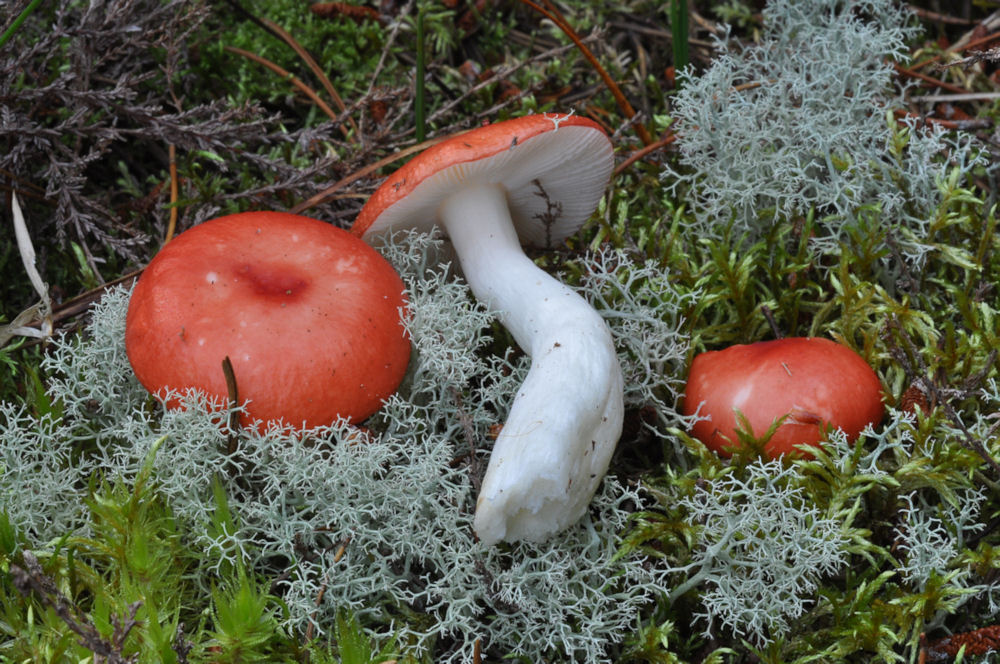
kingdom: Fungi
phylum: Basidiomycota
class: Agaricomycetes
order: Russulales
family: Russulaceae
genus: Russula
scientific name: Russula emetica
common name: stor gift-skørhat
